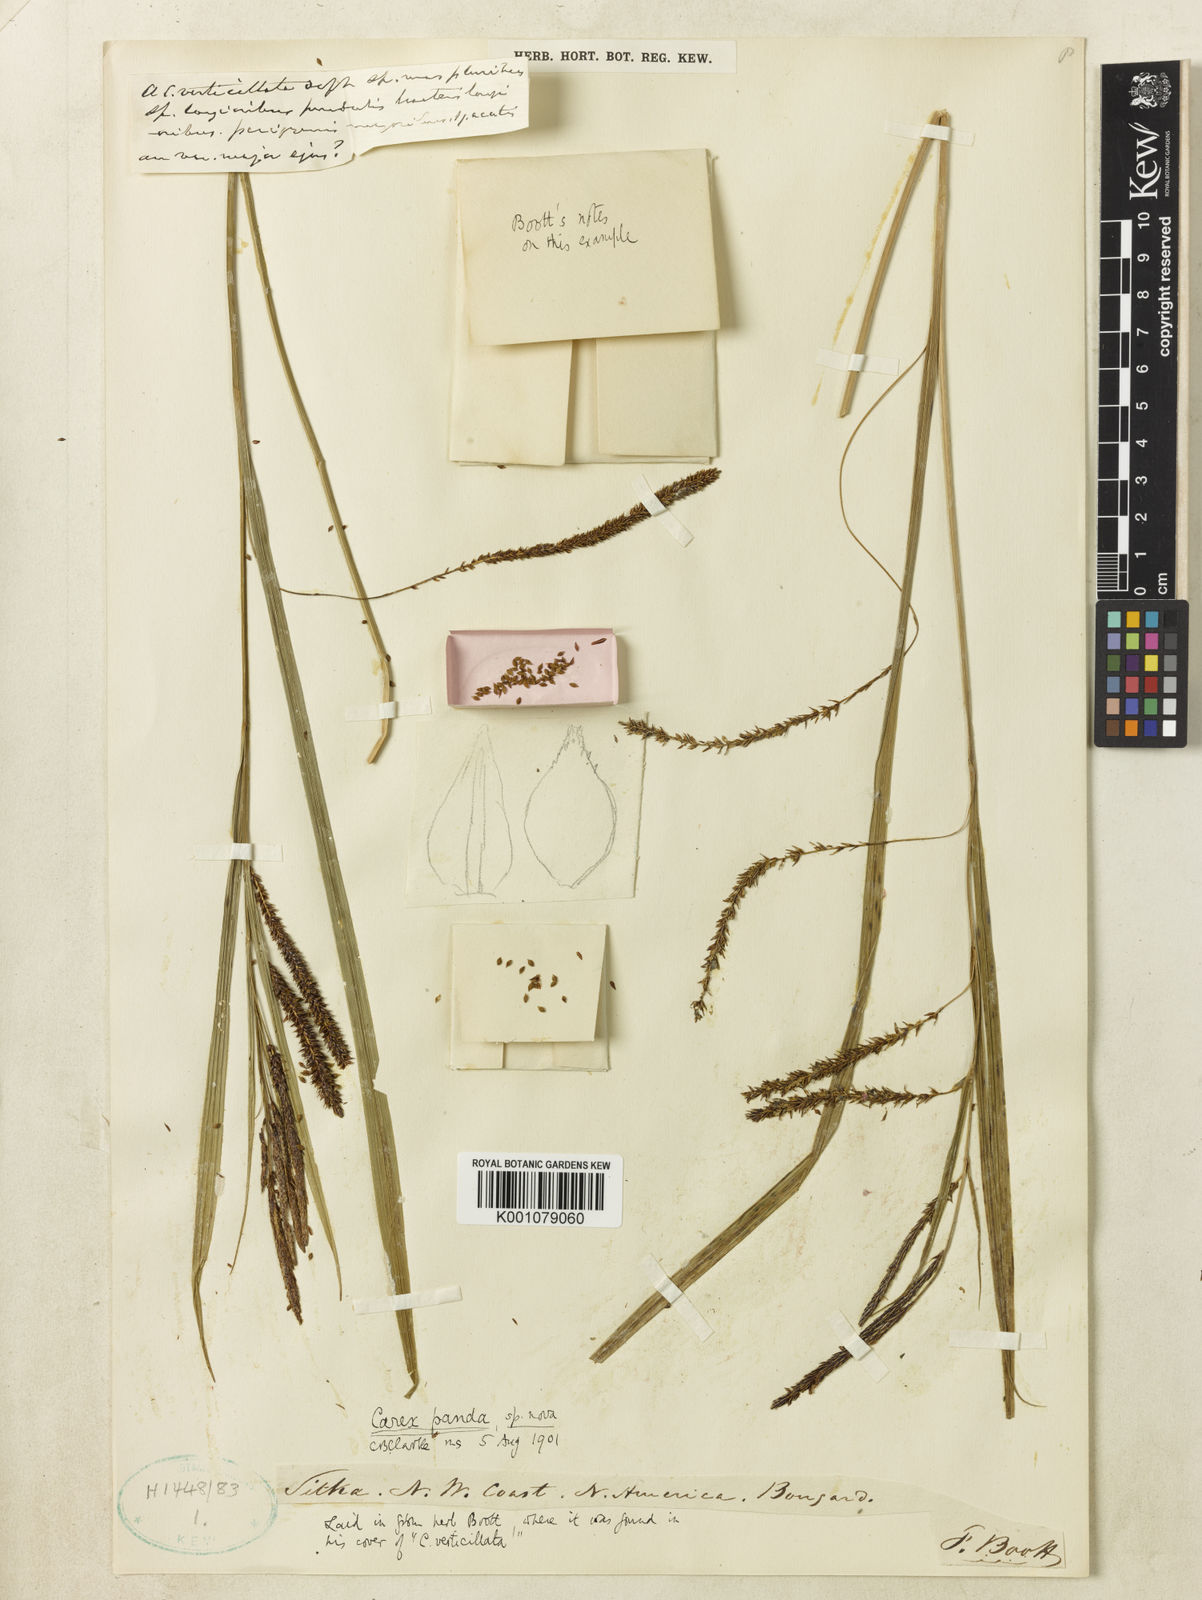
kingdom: Plantae
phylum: Tracheophyta
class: Liliopsida
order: Poales
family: Cyperaceae
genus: Carex
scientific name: Carex aquatilis
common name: Water sedge
